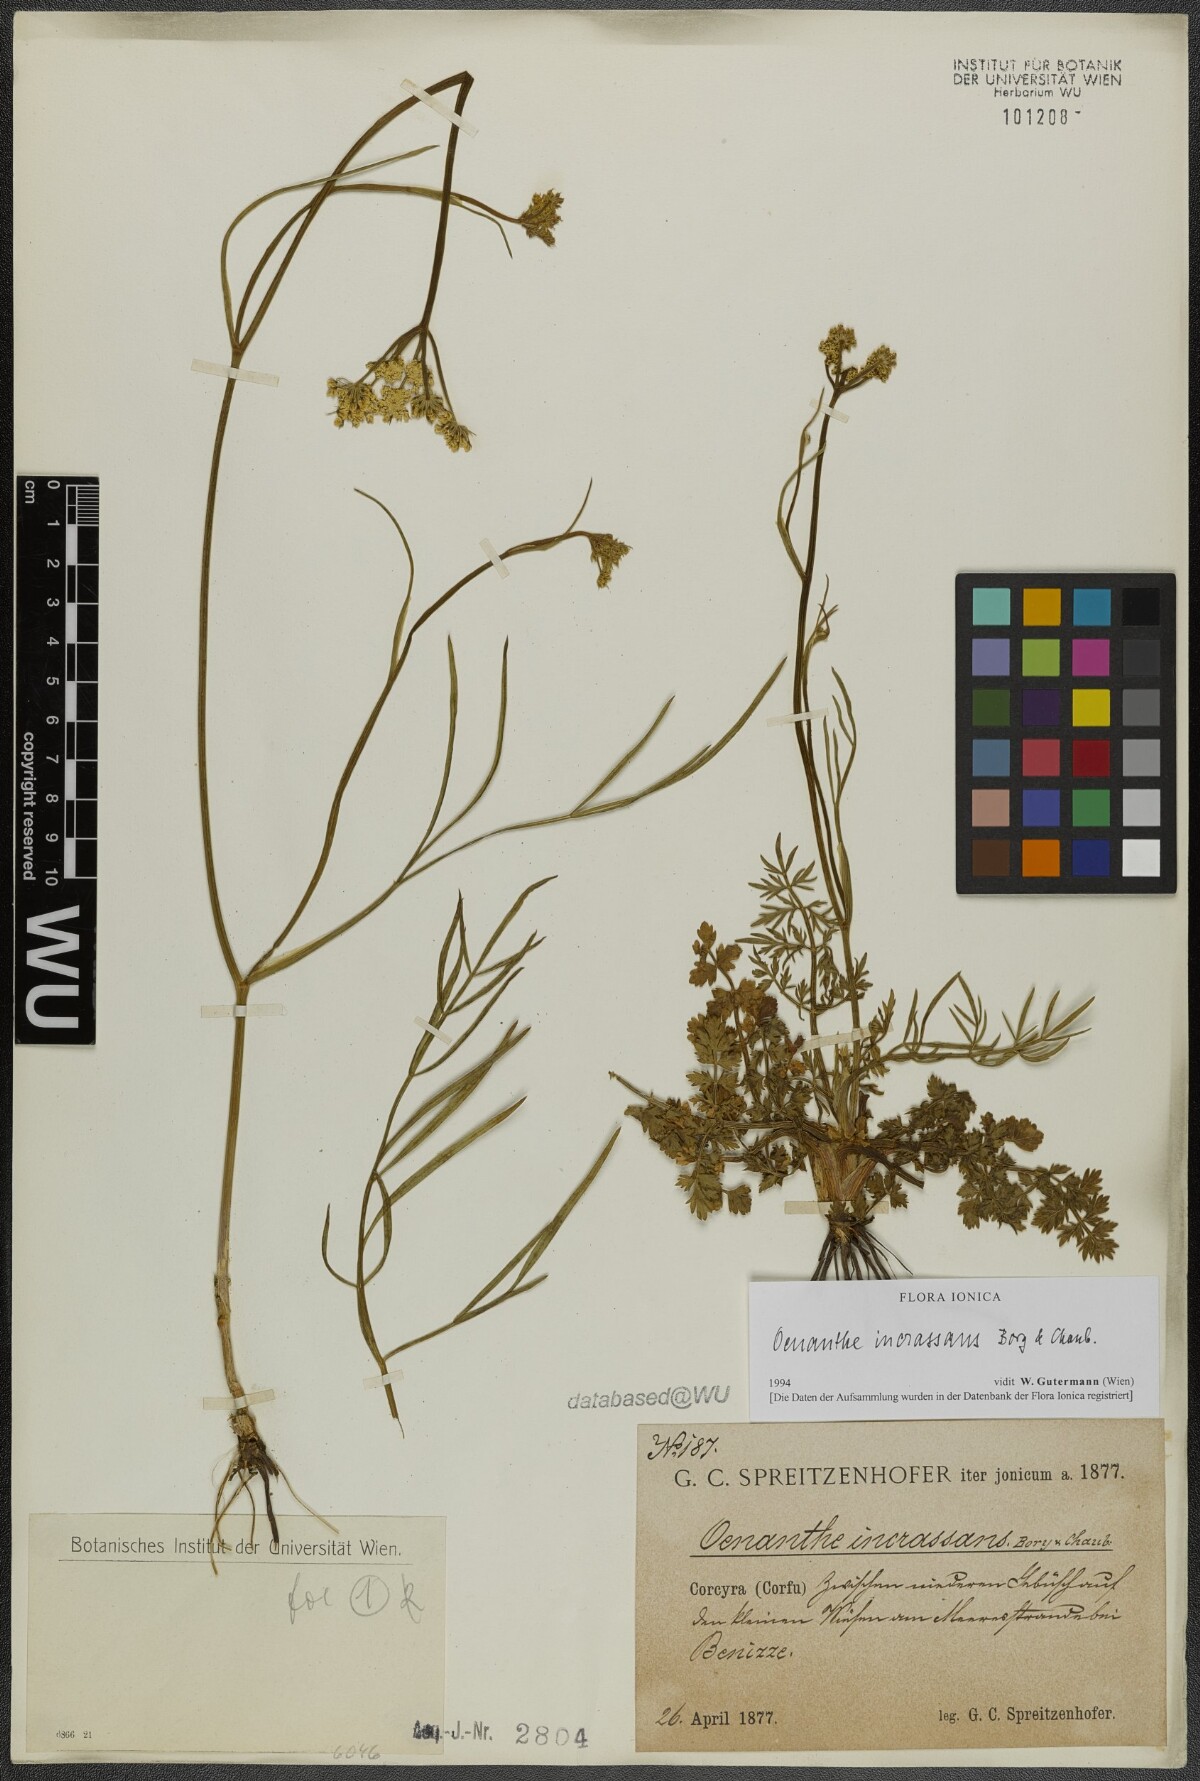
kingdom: Plantae
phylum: Tracheophyta
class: Magnoliopsida
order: Apiales
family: Apiaceae
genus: Oenanthe
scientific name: Oenanthe pimpinelloides
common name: Corky-fruited water-dropwort
